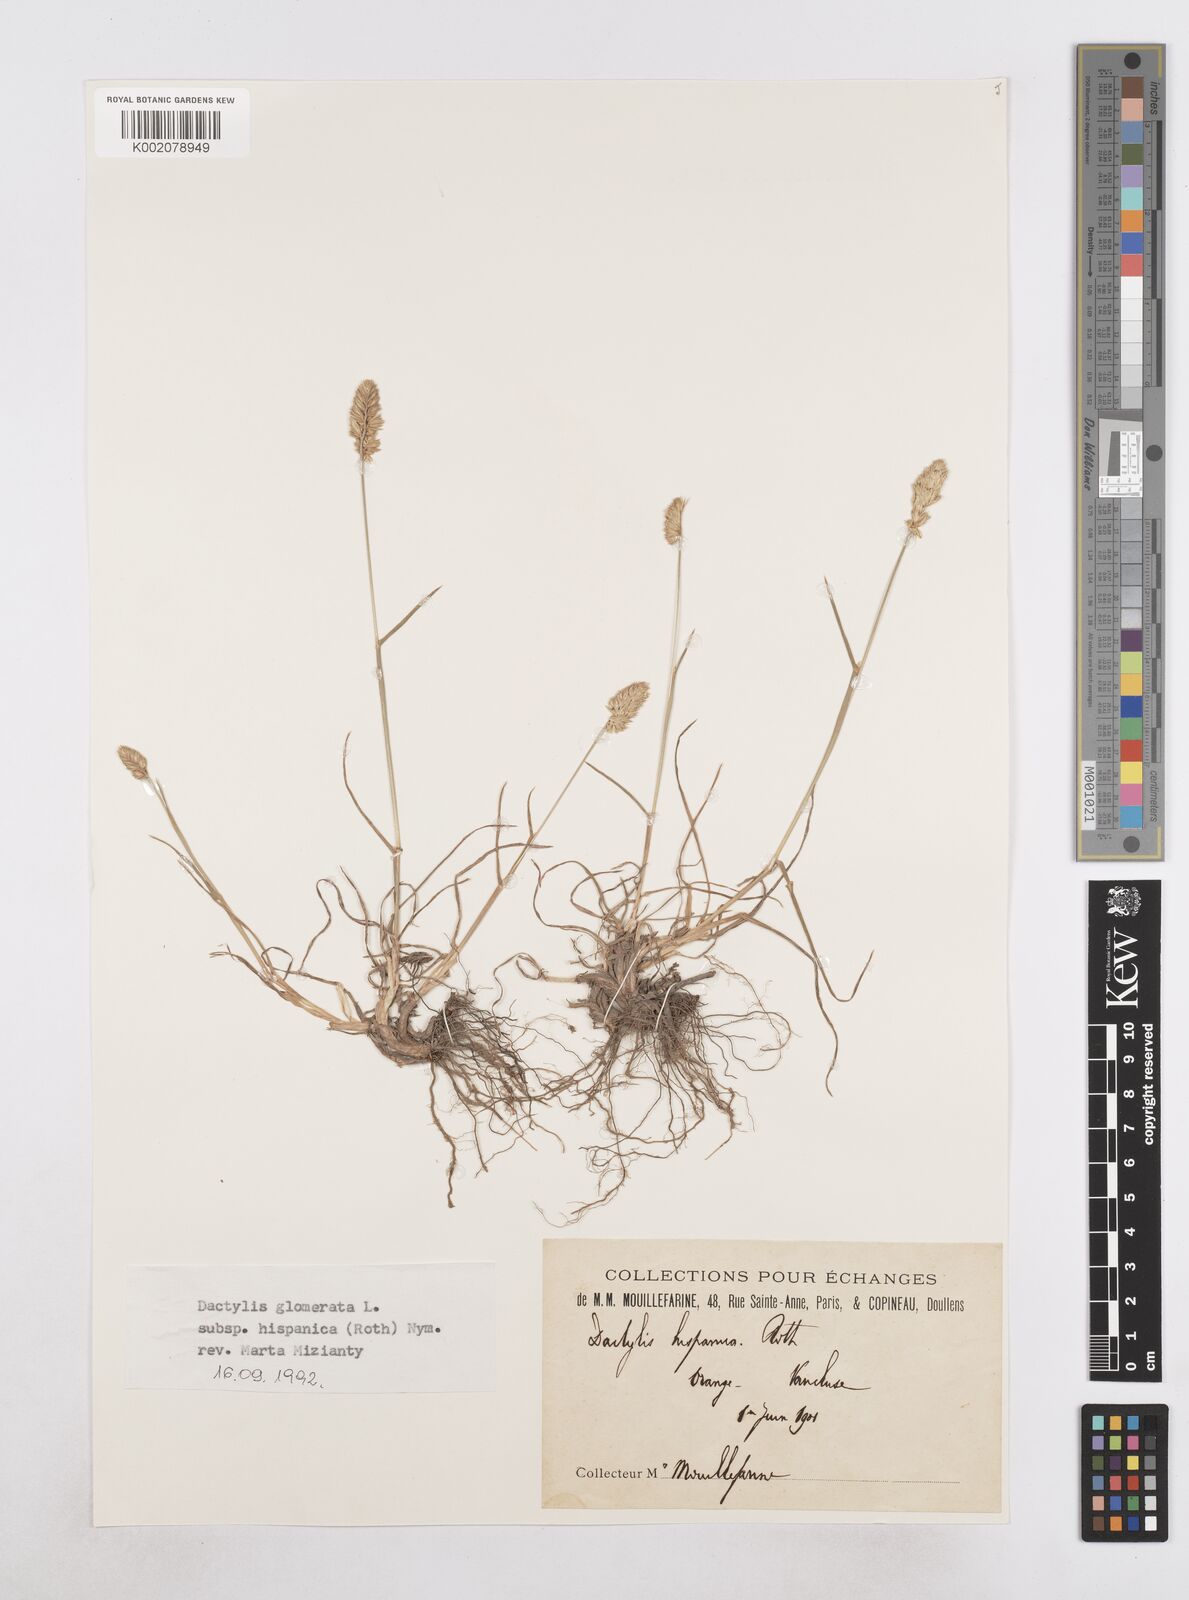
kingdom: Plantae
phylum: Tracheophyta
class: Liliopsida
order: Poales
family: Poaceae
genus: Dactylis
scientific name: Dactylis glomerata
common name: Orchardgrass
